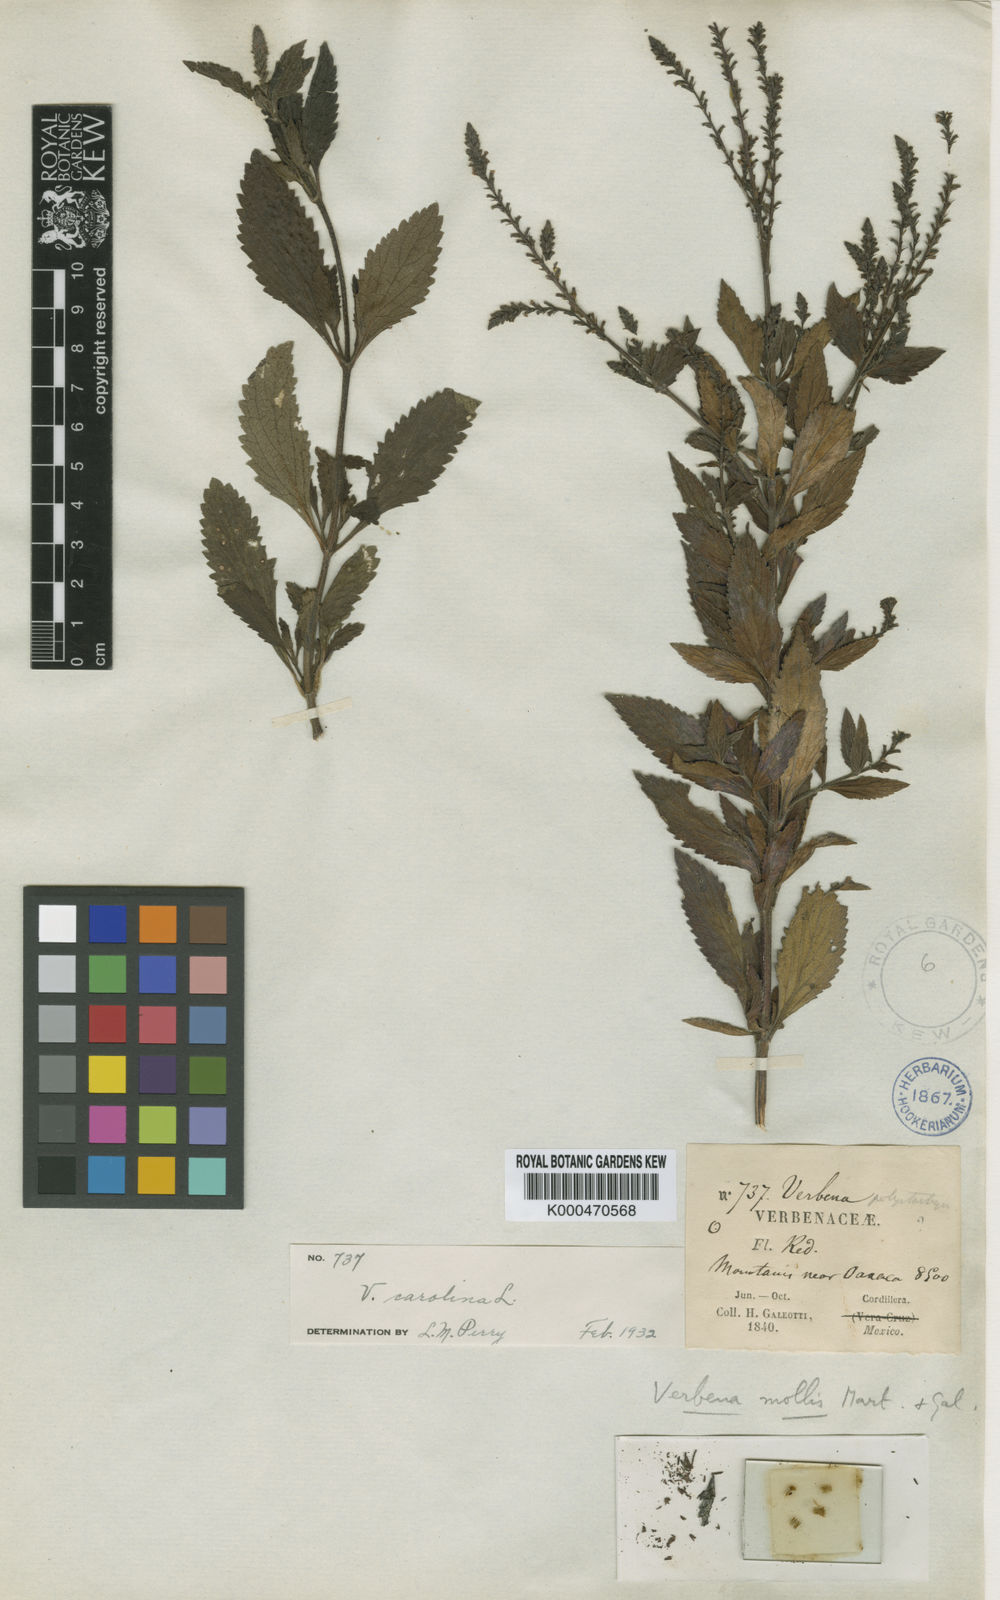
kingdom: Plantae
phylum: Tracheophyta
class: Magnoliopsida
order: Lamiales
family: Verbenaceae
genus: Verbena
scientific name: Verbena carolina
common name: Carolina vervain
